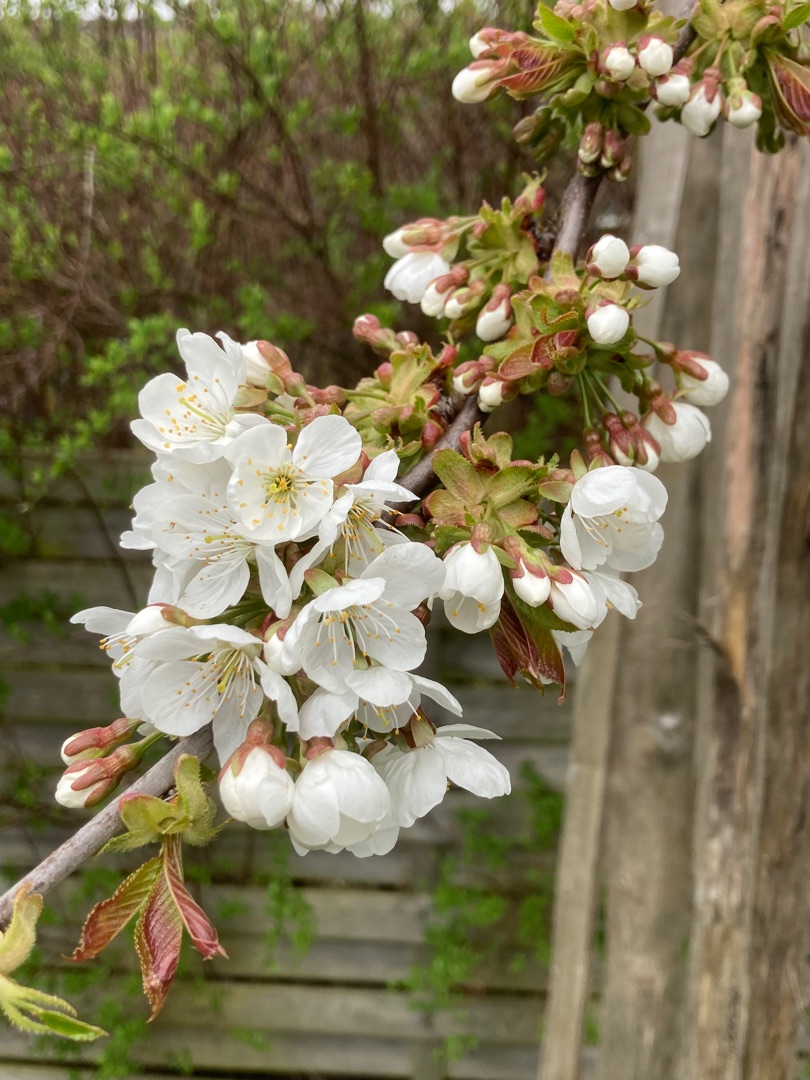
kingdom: Plantae
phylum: Tracheophyta
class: Magnoliopsida
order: Rosales
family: Rosaceae
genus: Prunus
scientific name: Prunus avium
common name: Fugle-kirsebær
